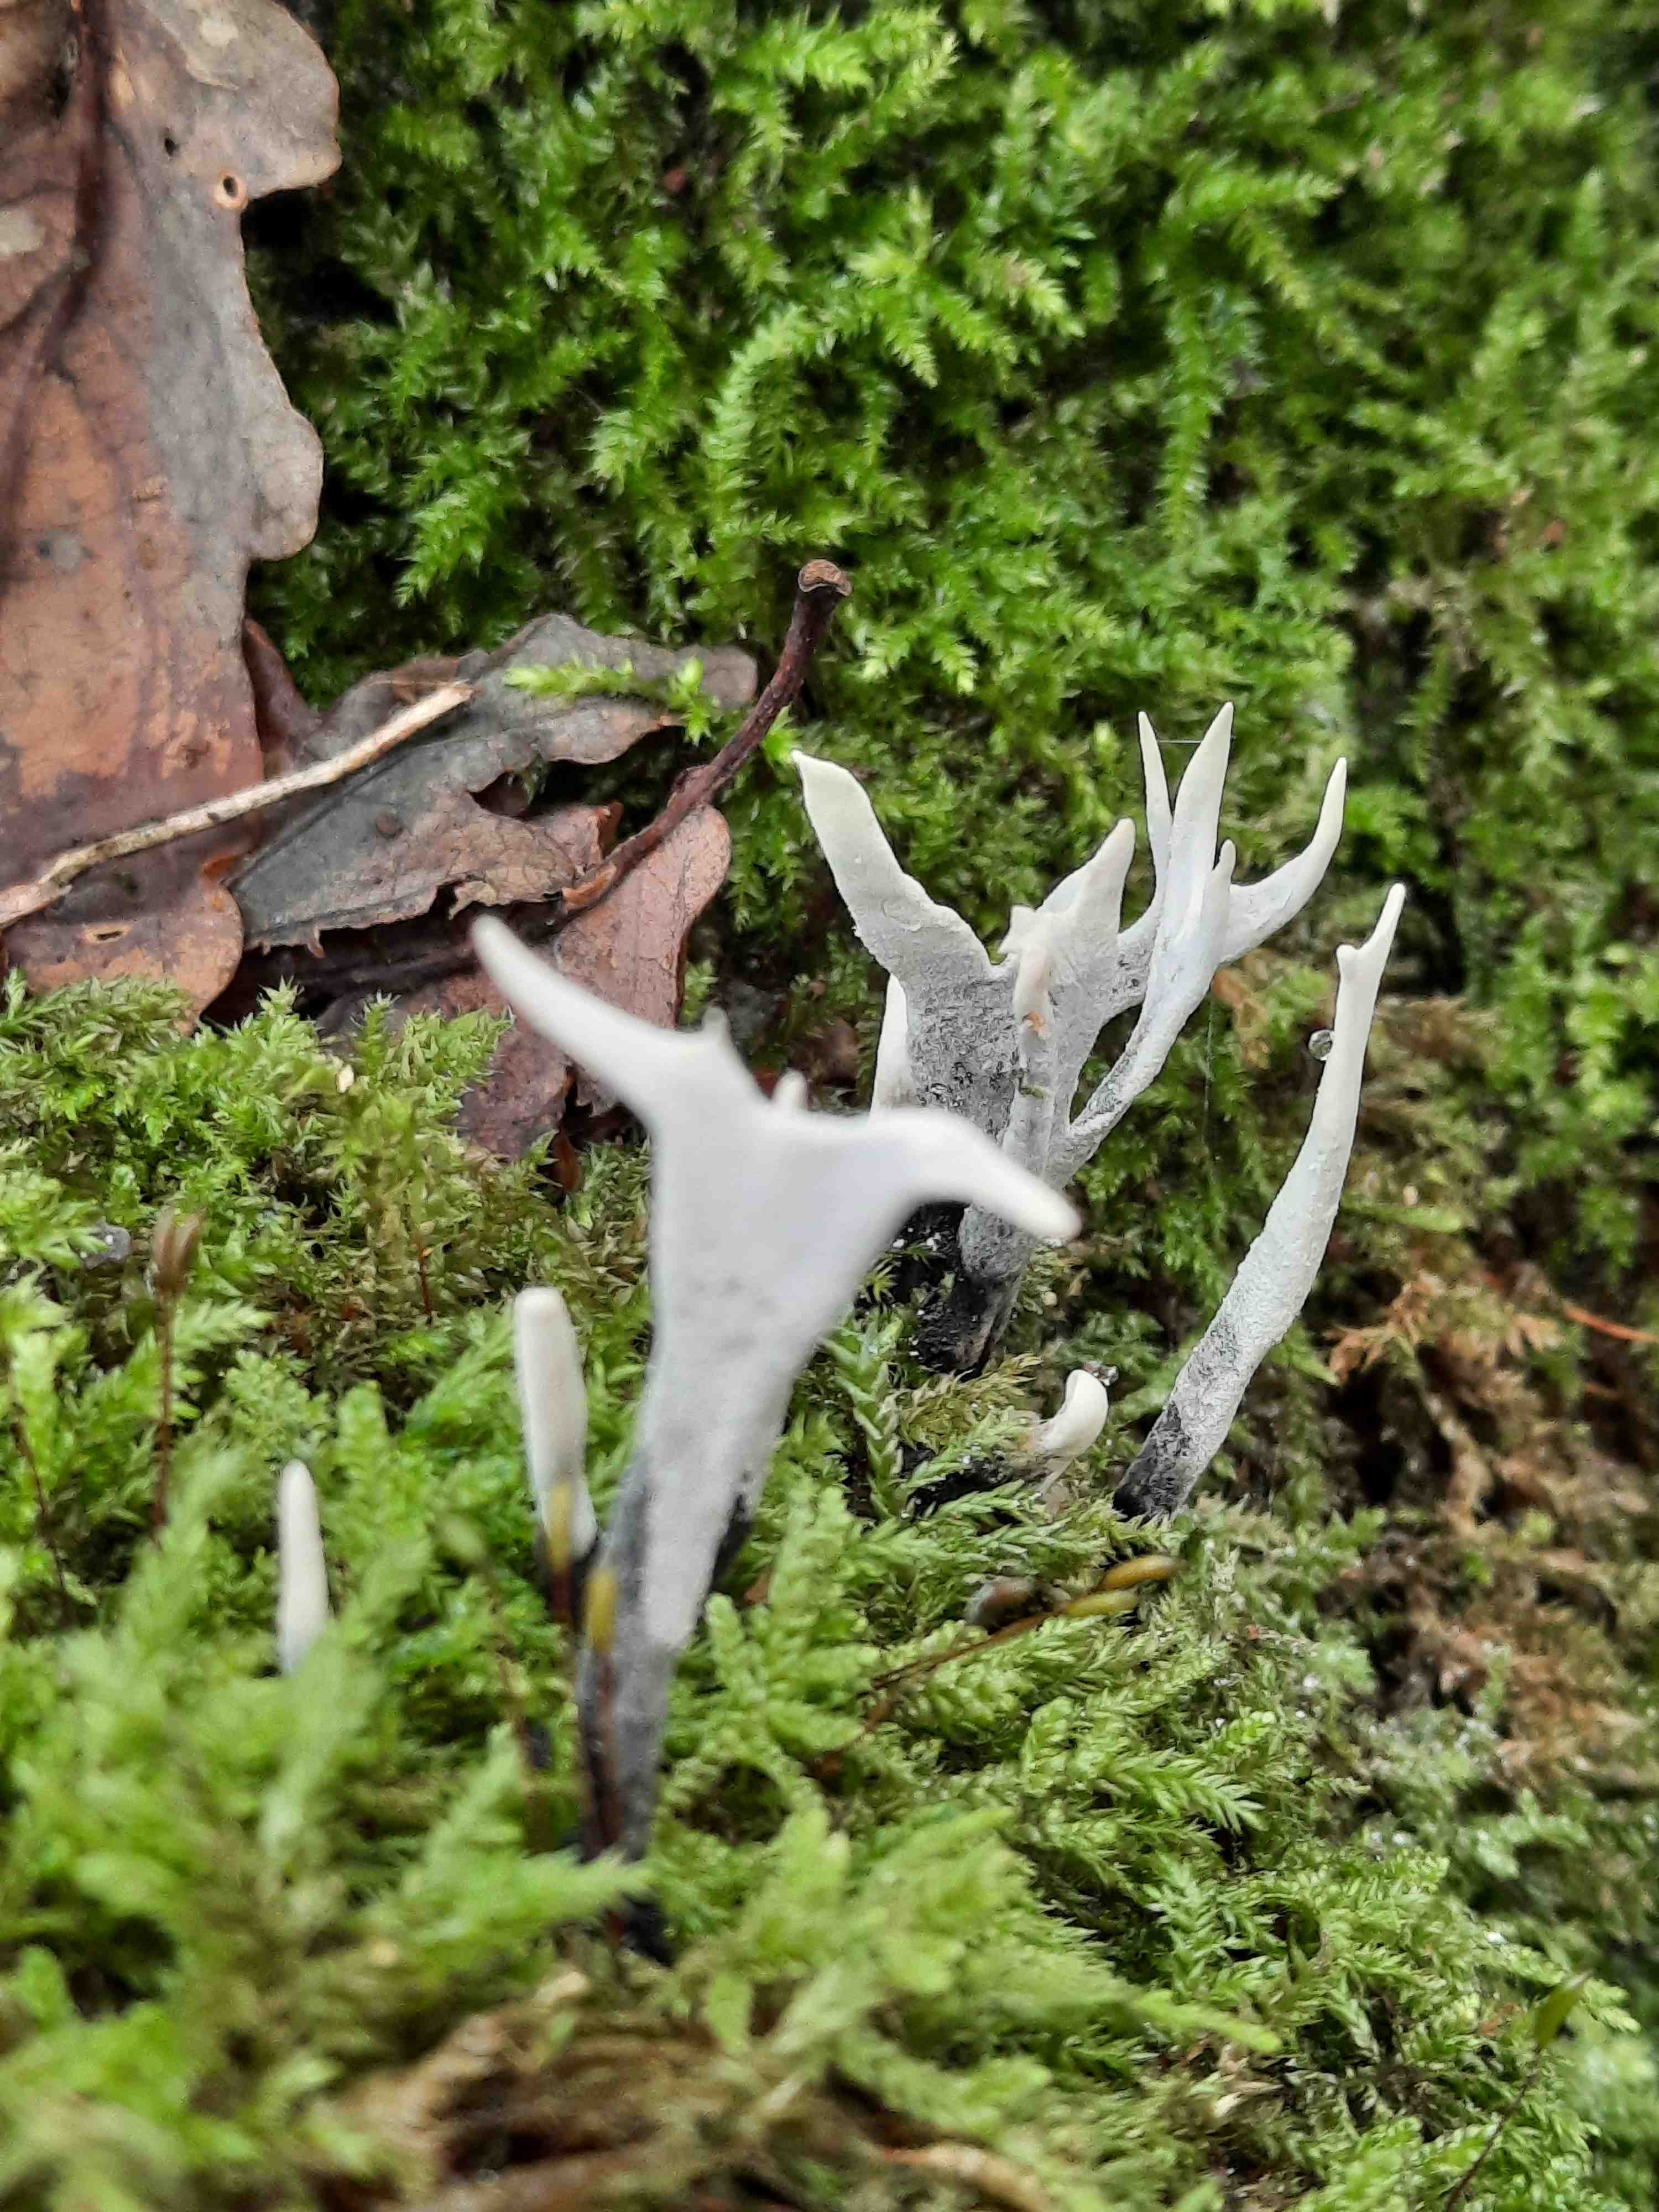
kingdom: Fungi
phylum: Ascomycota
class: Sordariomycetes
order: Xylariales
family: Xylariaceae
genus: Xylaria
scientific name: Xylaria hypoxylon
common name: grenet stødsvamp
